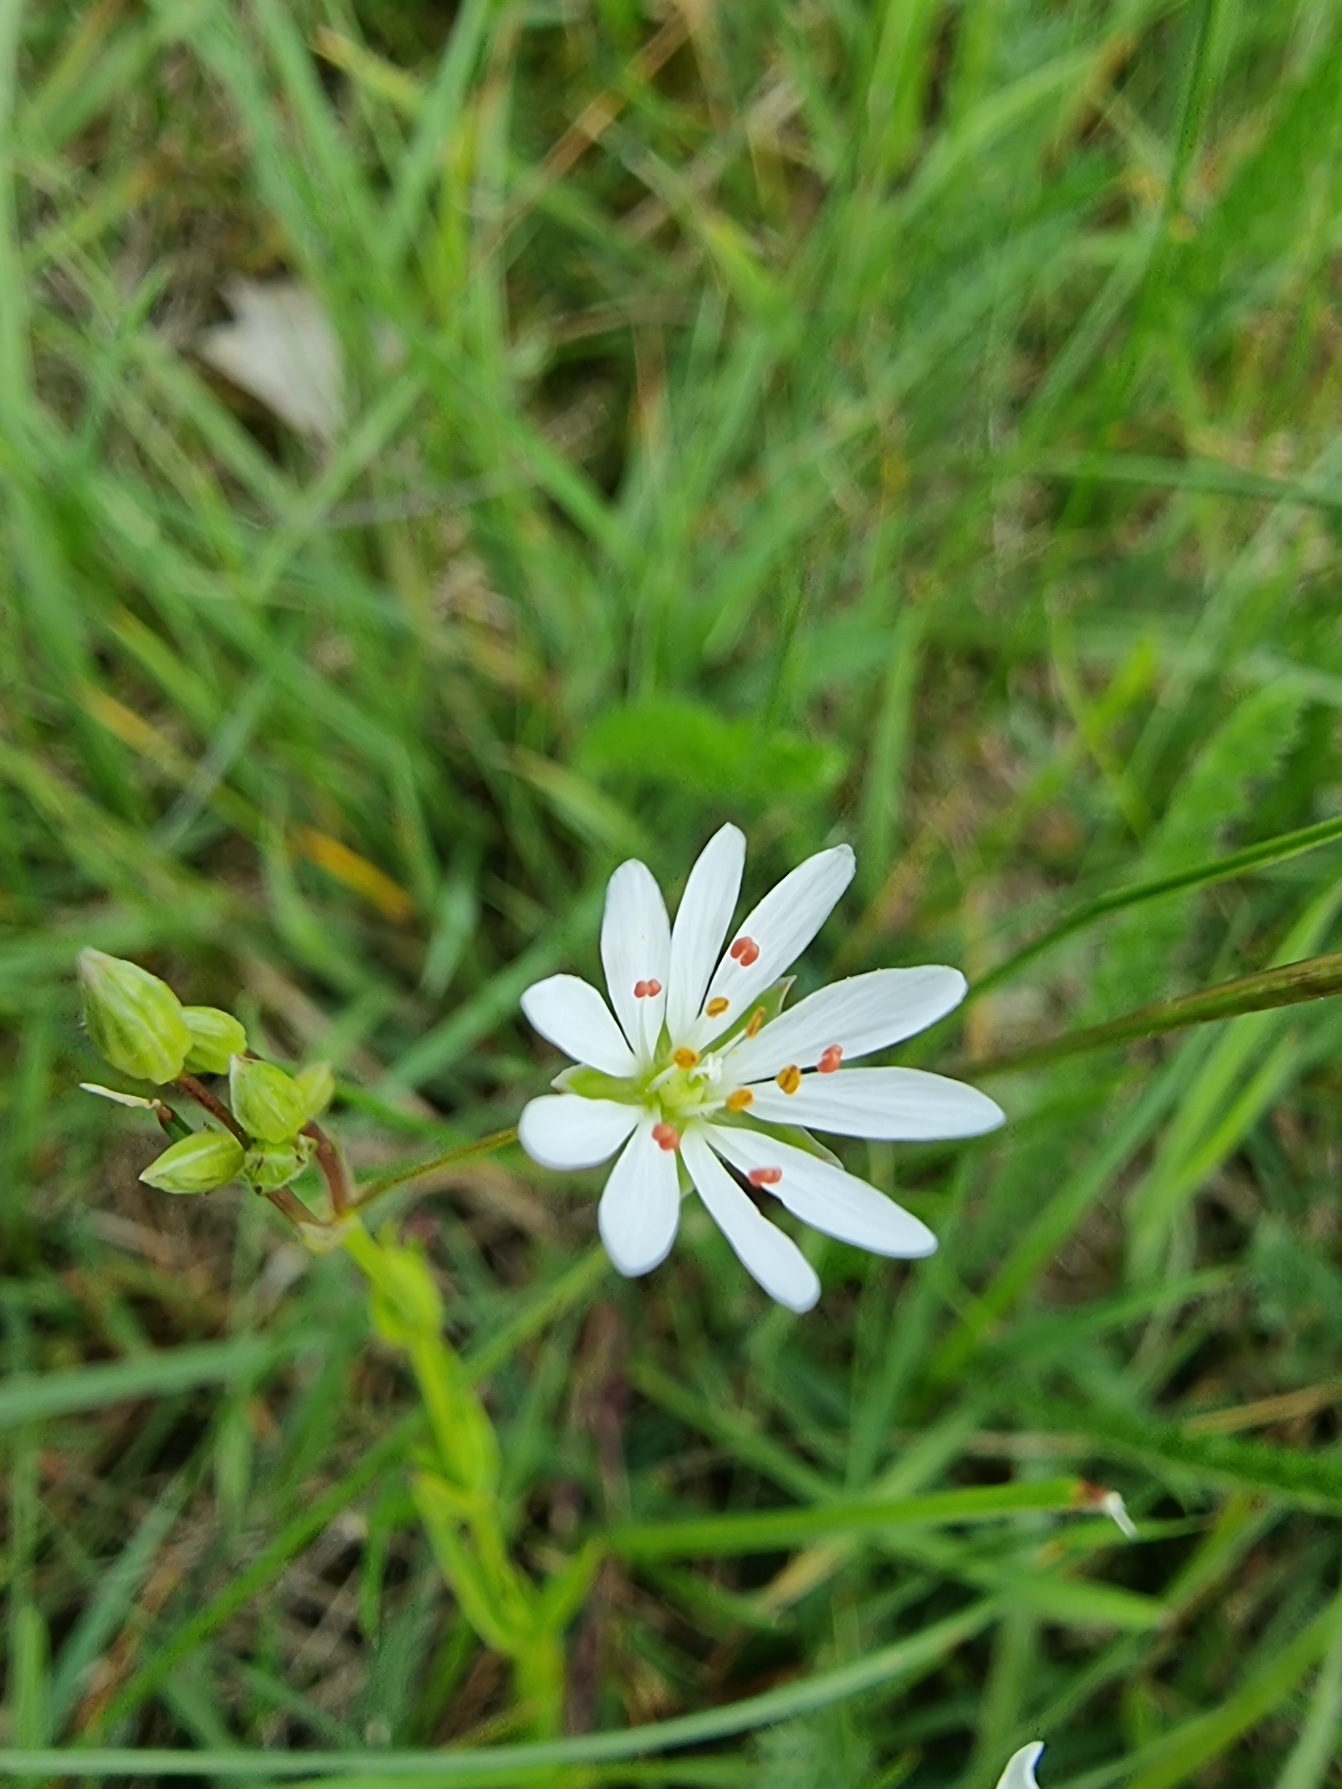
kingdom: Plantae
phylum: Tracheophyta
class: Magnoliopsida
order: Caryophyllales
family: Caryophyllaceae
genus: Stellaria
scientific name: Stellaria graminea
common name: Græsbladet fladstjerne
